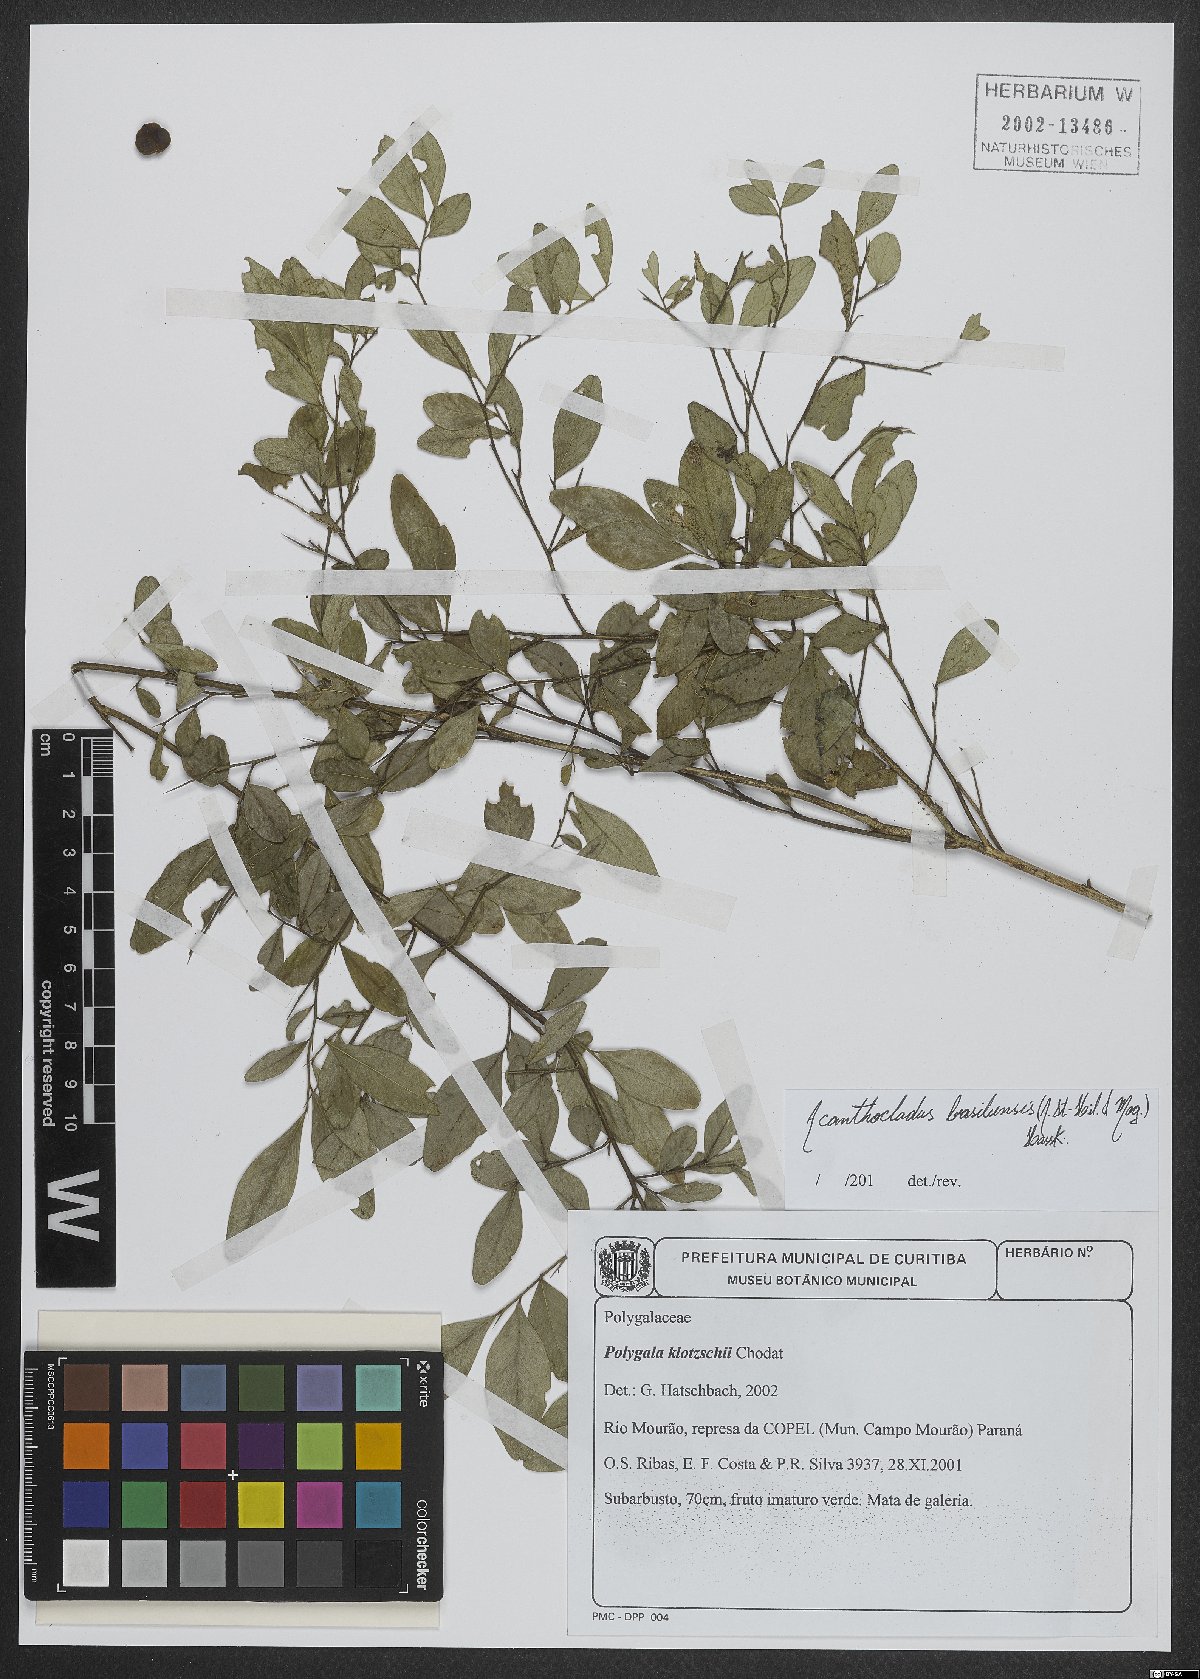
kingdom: Plantae
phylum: Tracheophyta
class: Magnoliopsida
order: Fabales
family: Polygalaceae
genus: Acanthocladus
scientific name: Acanthocladus brasiliensis
